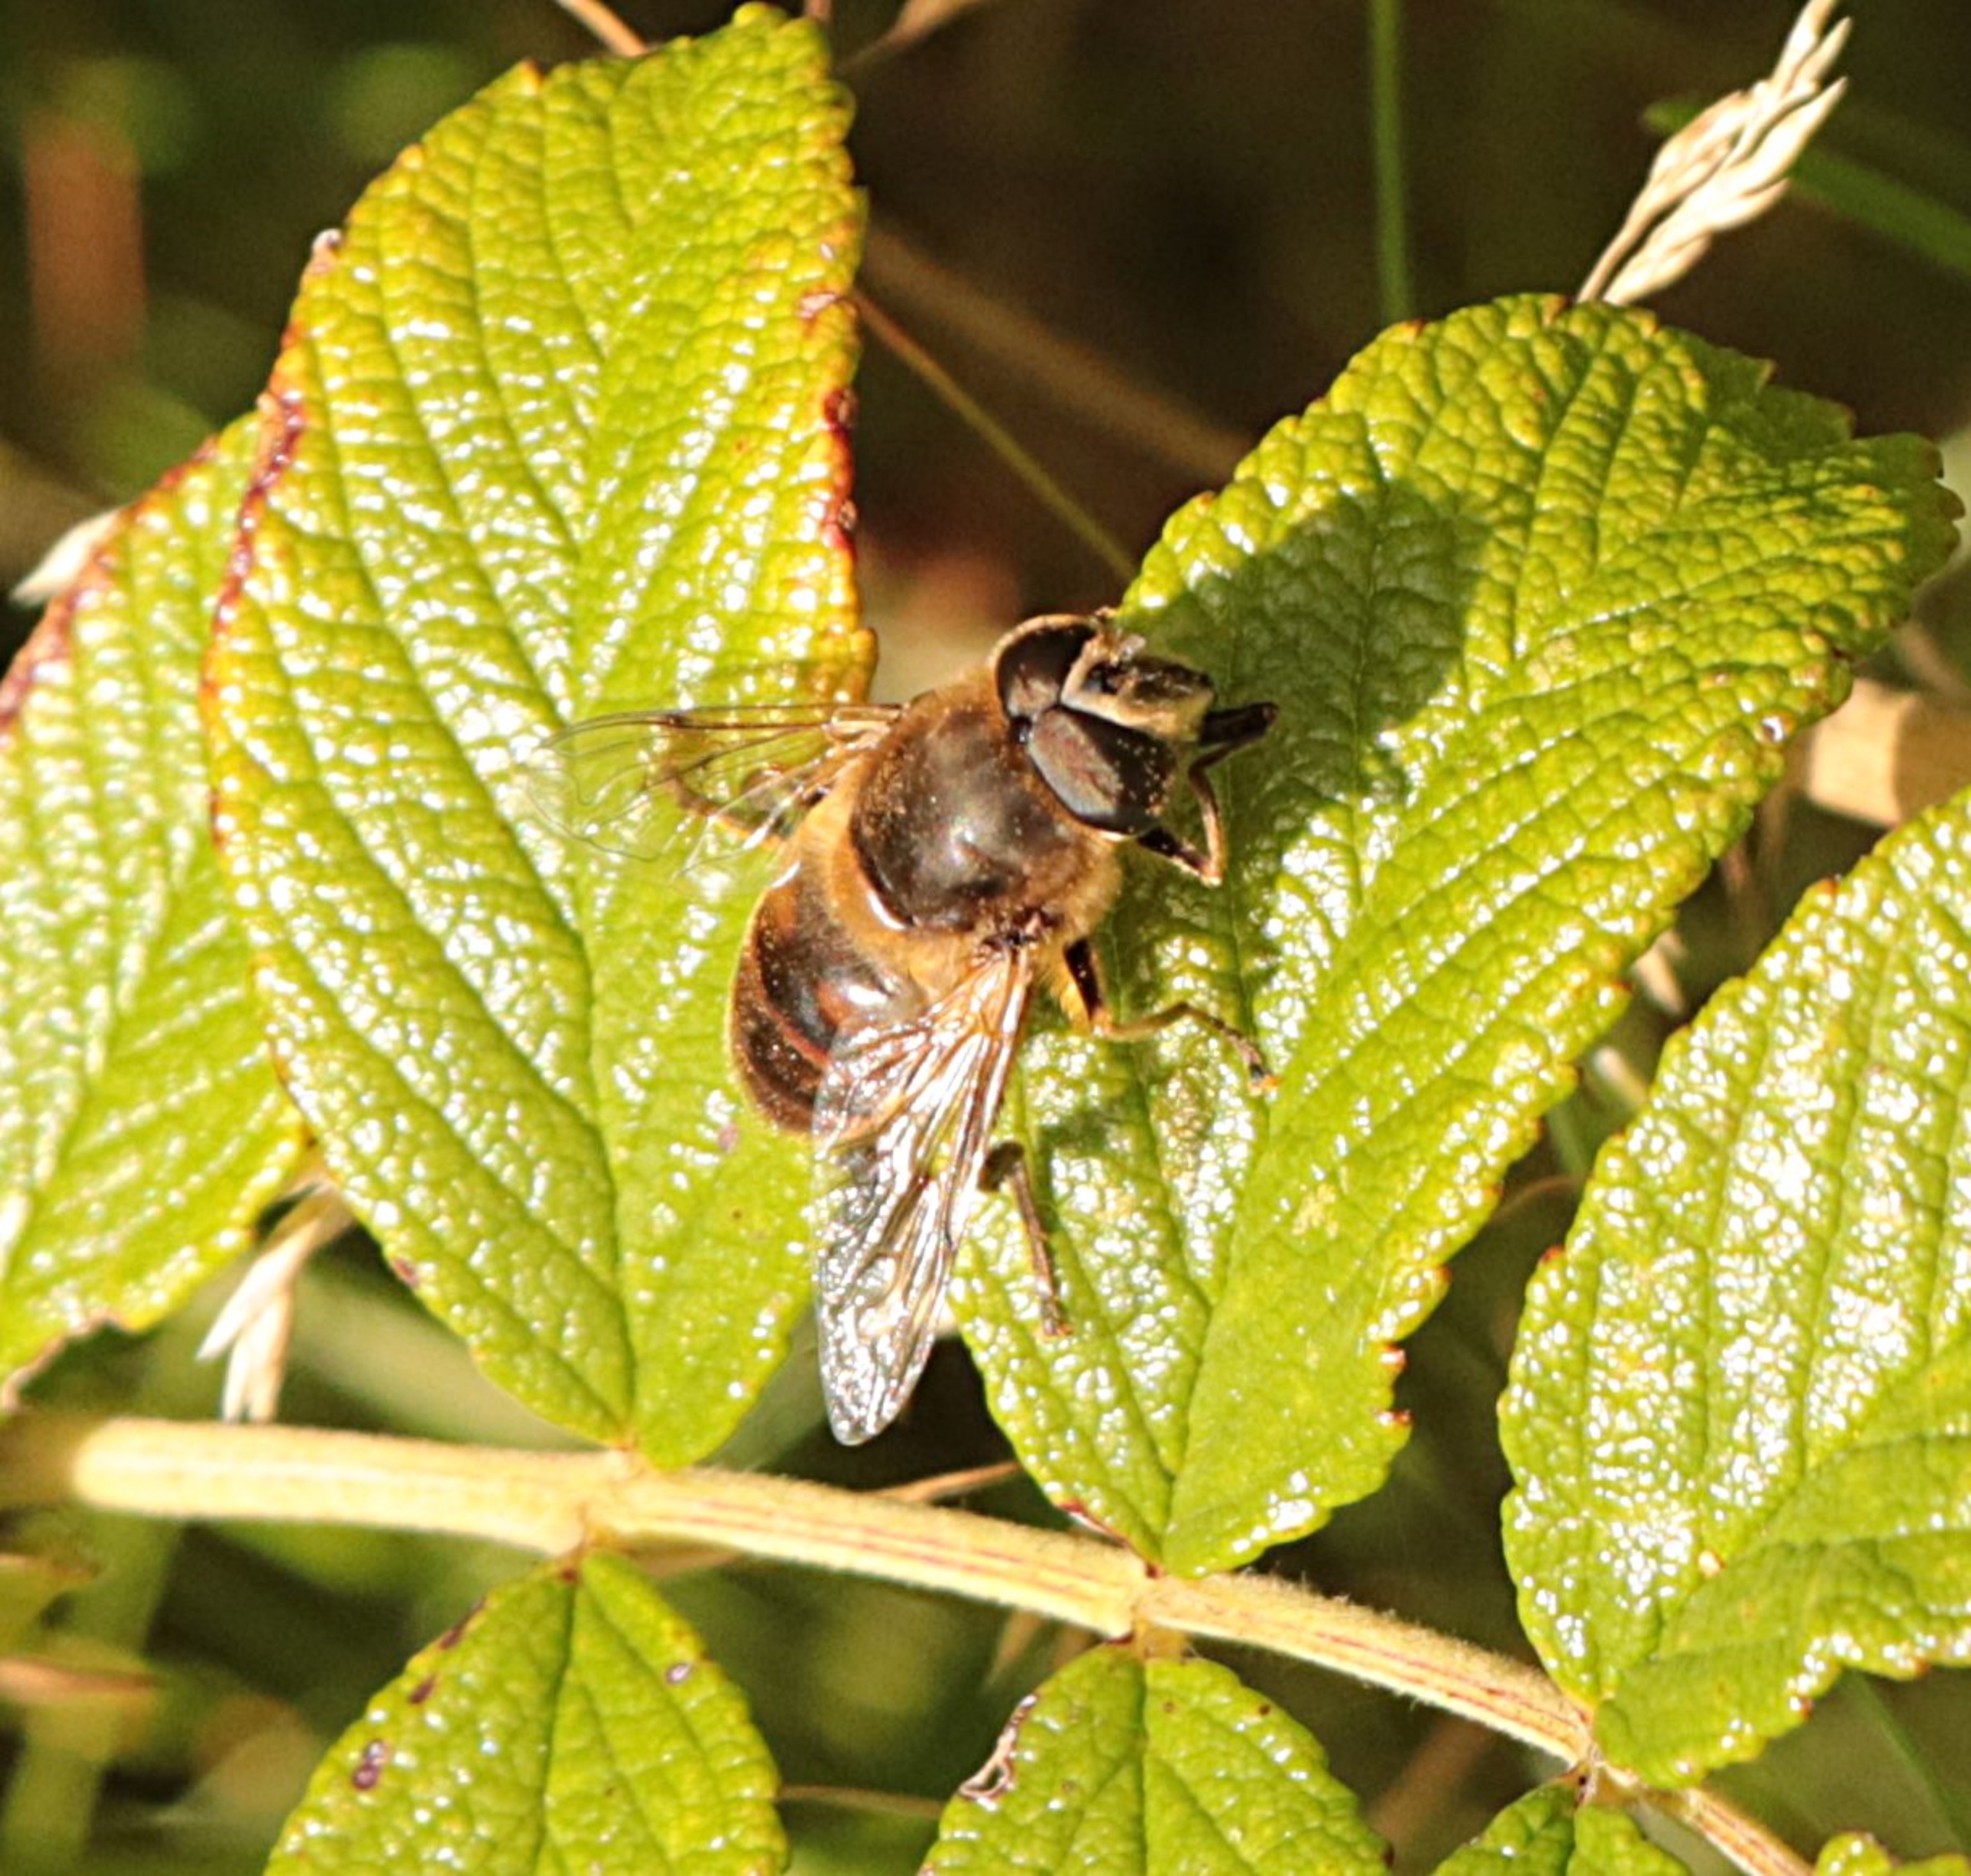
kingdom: Animalia
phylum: Arthropoda
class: Insecta
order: Diptera
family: Syrphidae
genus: Eristalis
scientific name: Eristalis tenax
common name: Droneflue
